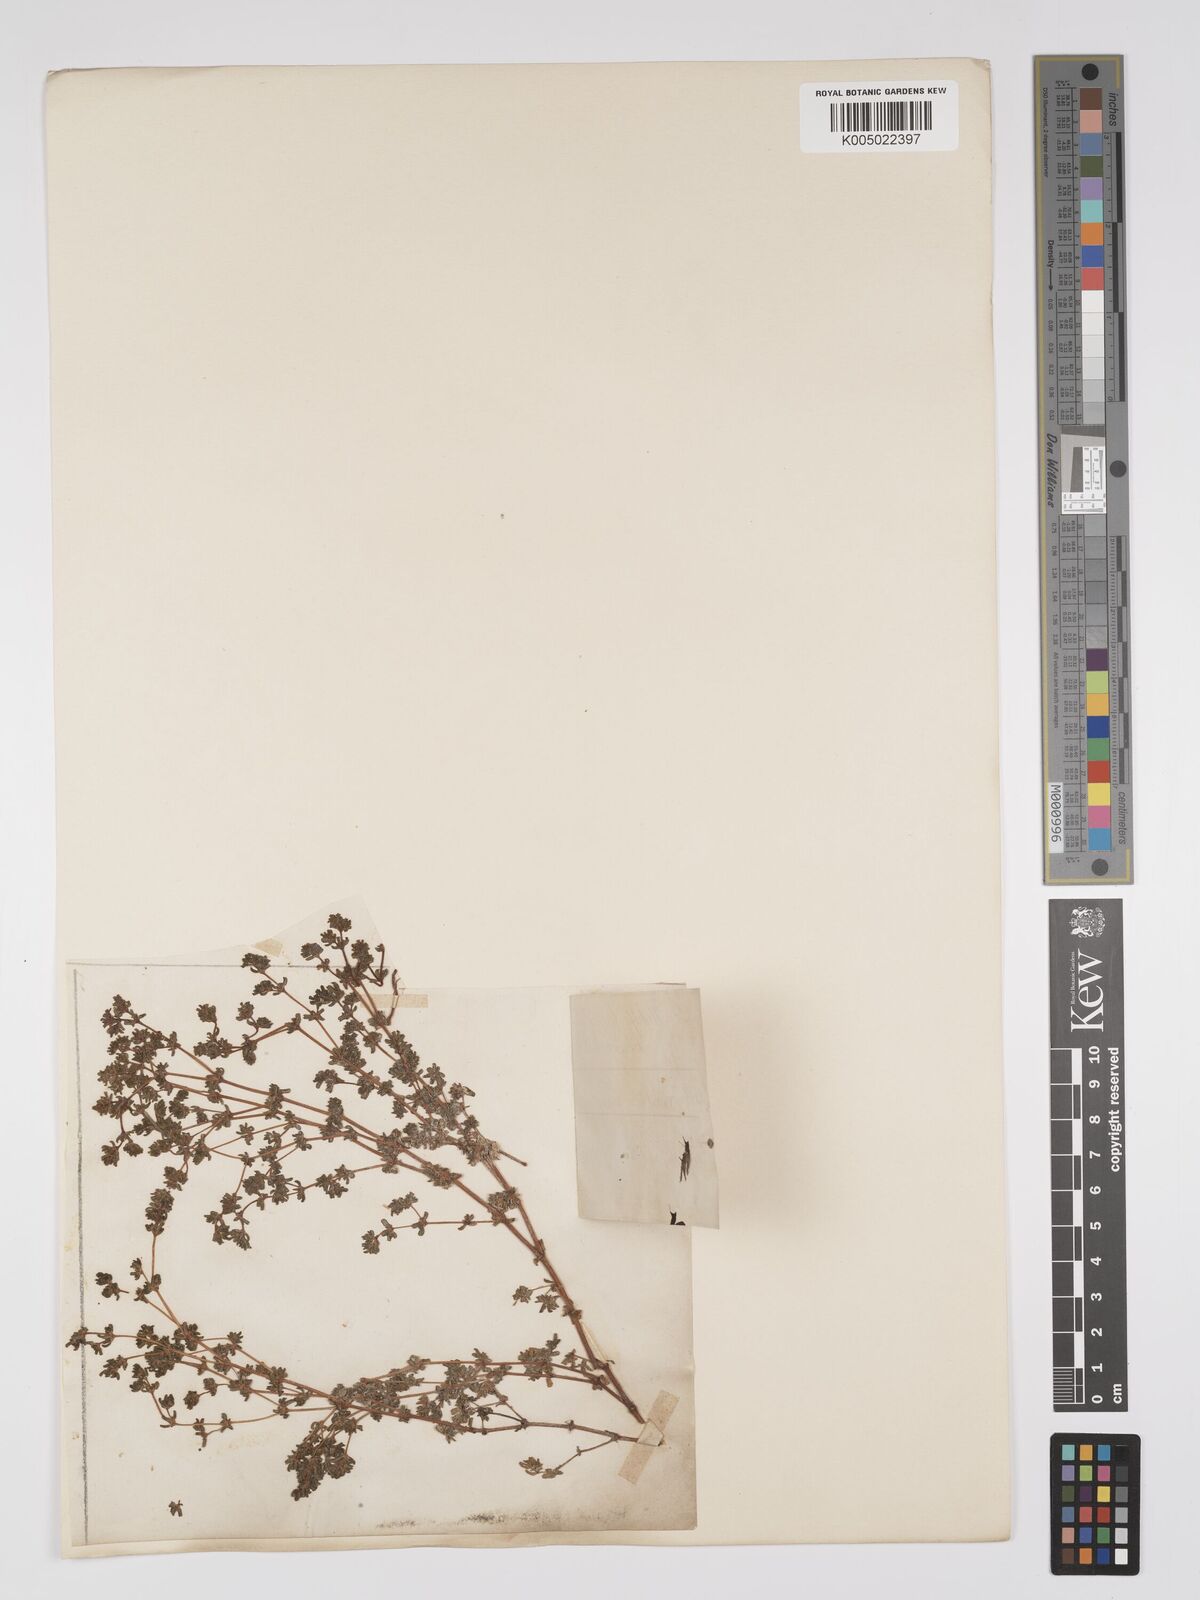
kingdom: Plantae
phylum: Tracheophyta
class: Magnoliopsida
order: Caryophyllales
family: Frankeniaceae
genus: Frankenia
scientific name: Frankenia pulverulenta
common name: European seaheath
